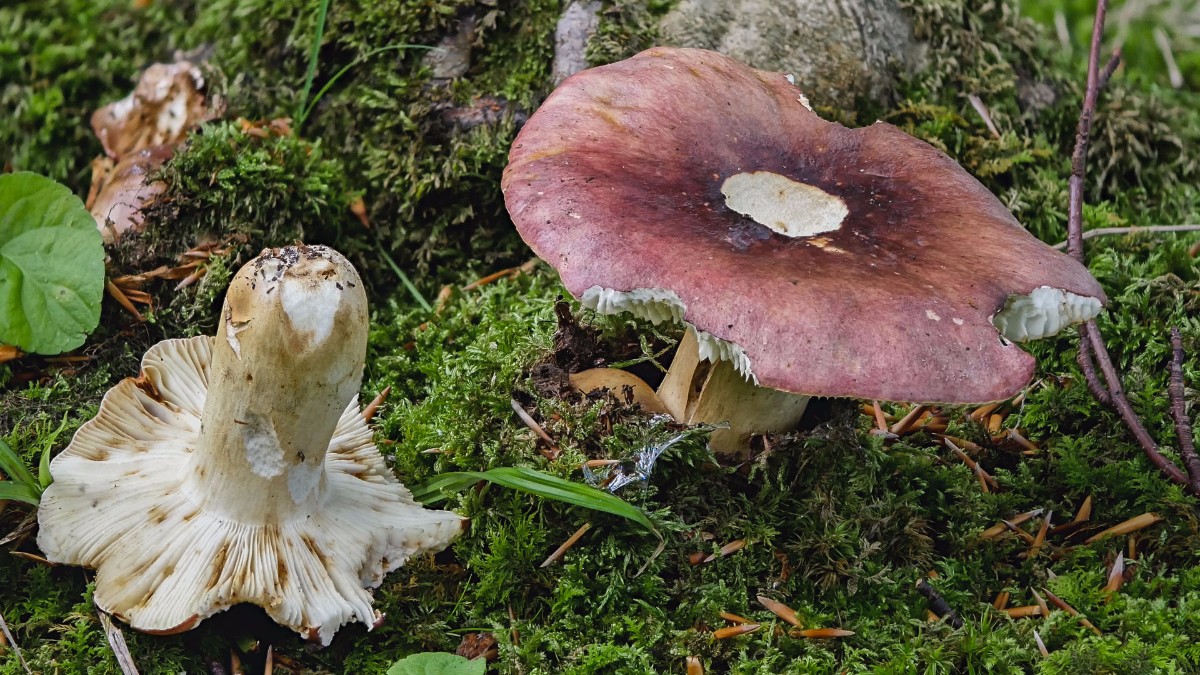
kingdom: Fungi
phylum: Basidiomycota
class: Agaricomycetes
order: Russulales
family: Russulaceae
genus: Russula
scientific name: Russula viscida
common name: knippe-skørhat
